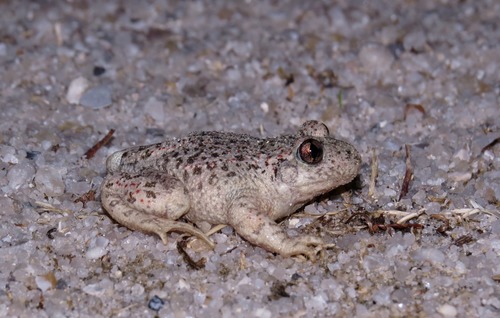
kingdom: Animalia
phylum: Chordata
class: Amphibia
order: Anura
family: Alytidae
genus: Alytes
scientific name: Alytes obstetricans
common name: Midwife toad
